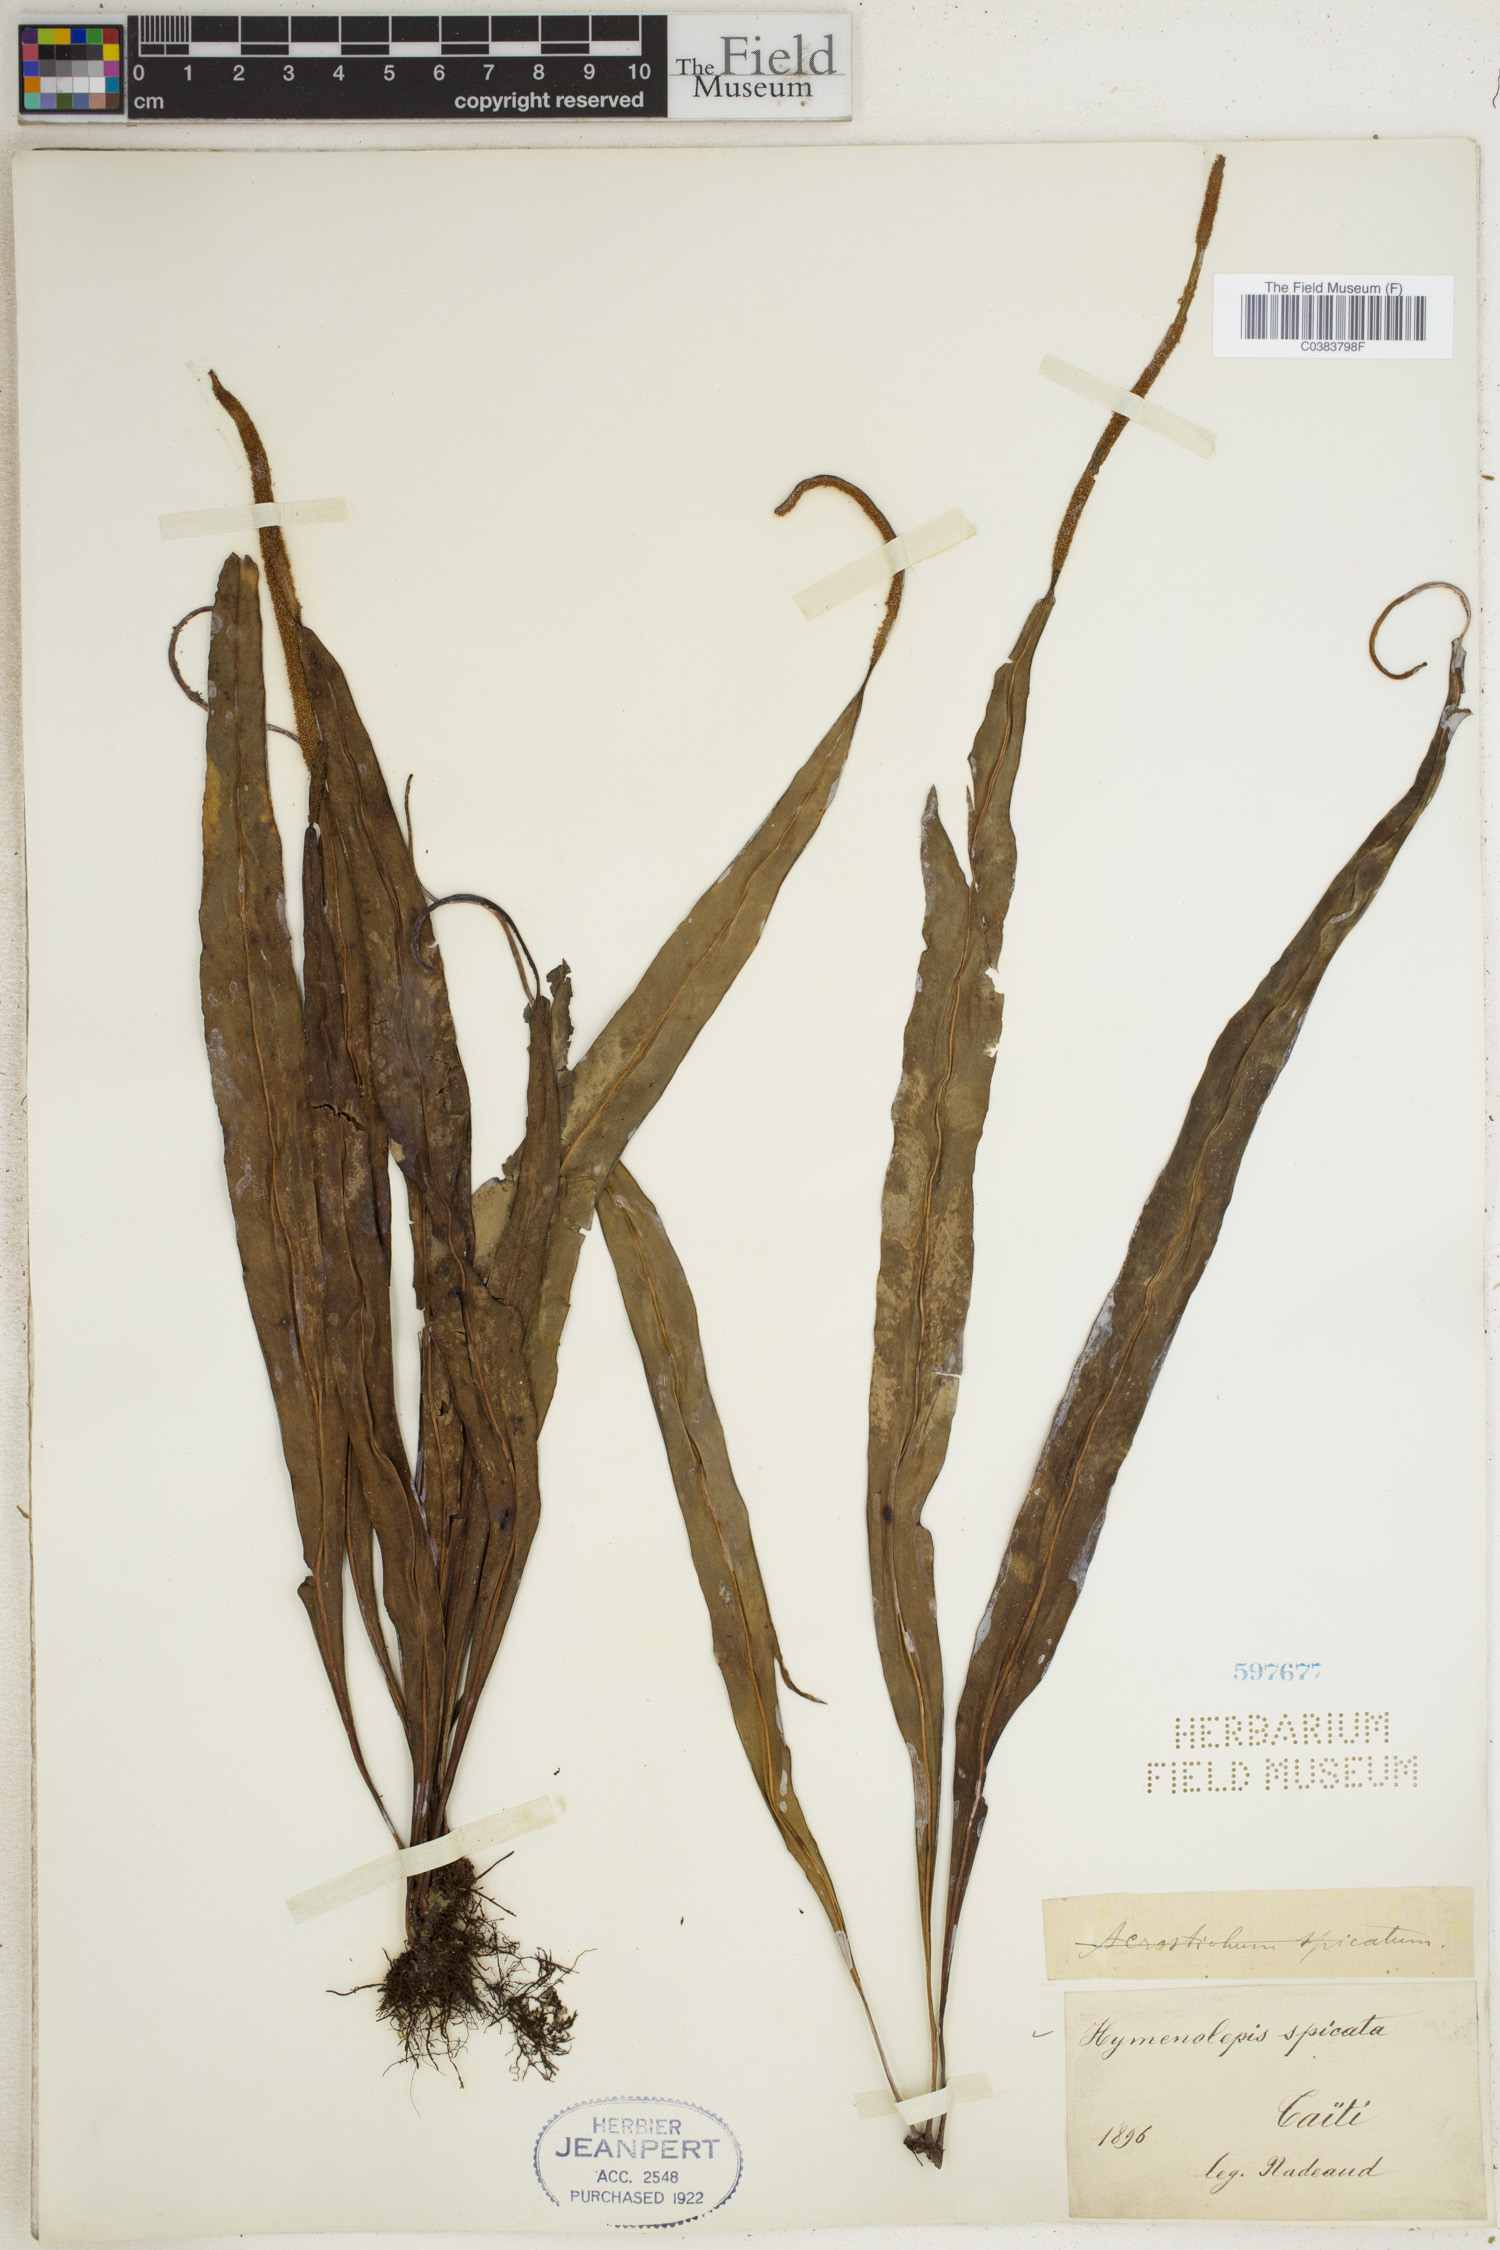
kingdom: Plantae
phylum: Tracheophyta
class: Polypodiopsida
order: Polypodiales
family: Polypodiaceae
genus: Lepisorus
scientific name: Lepisorus spicatus
